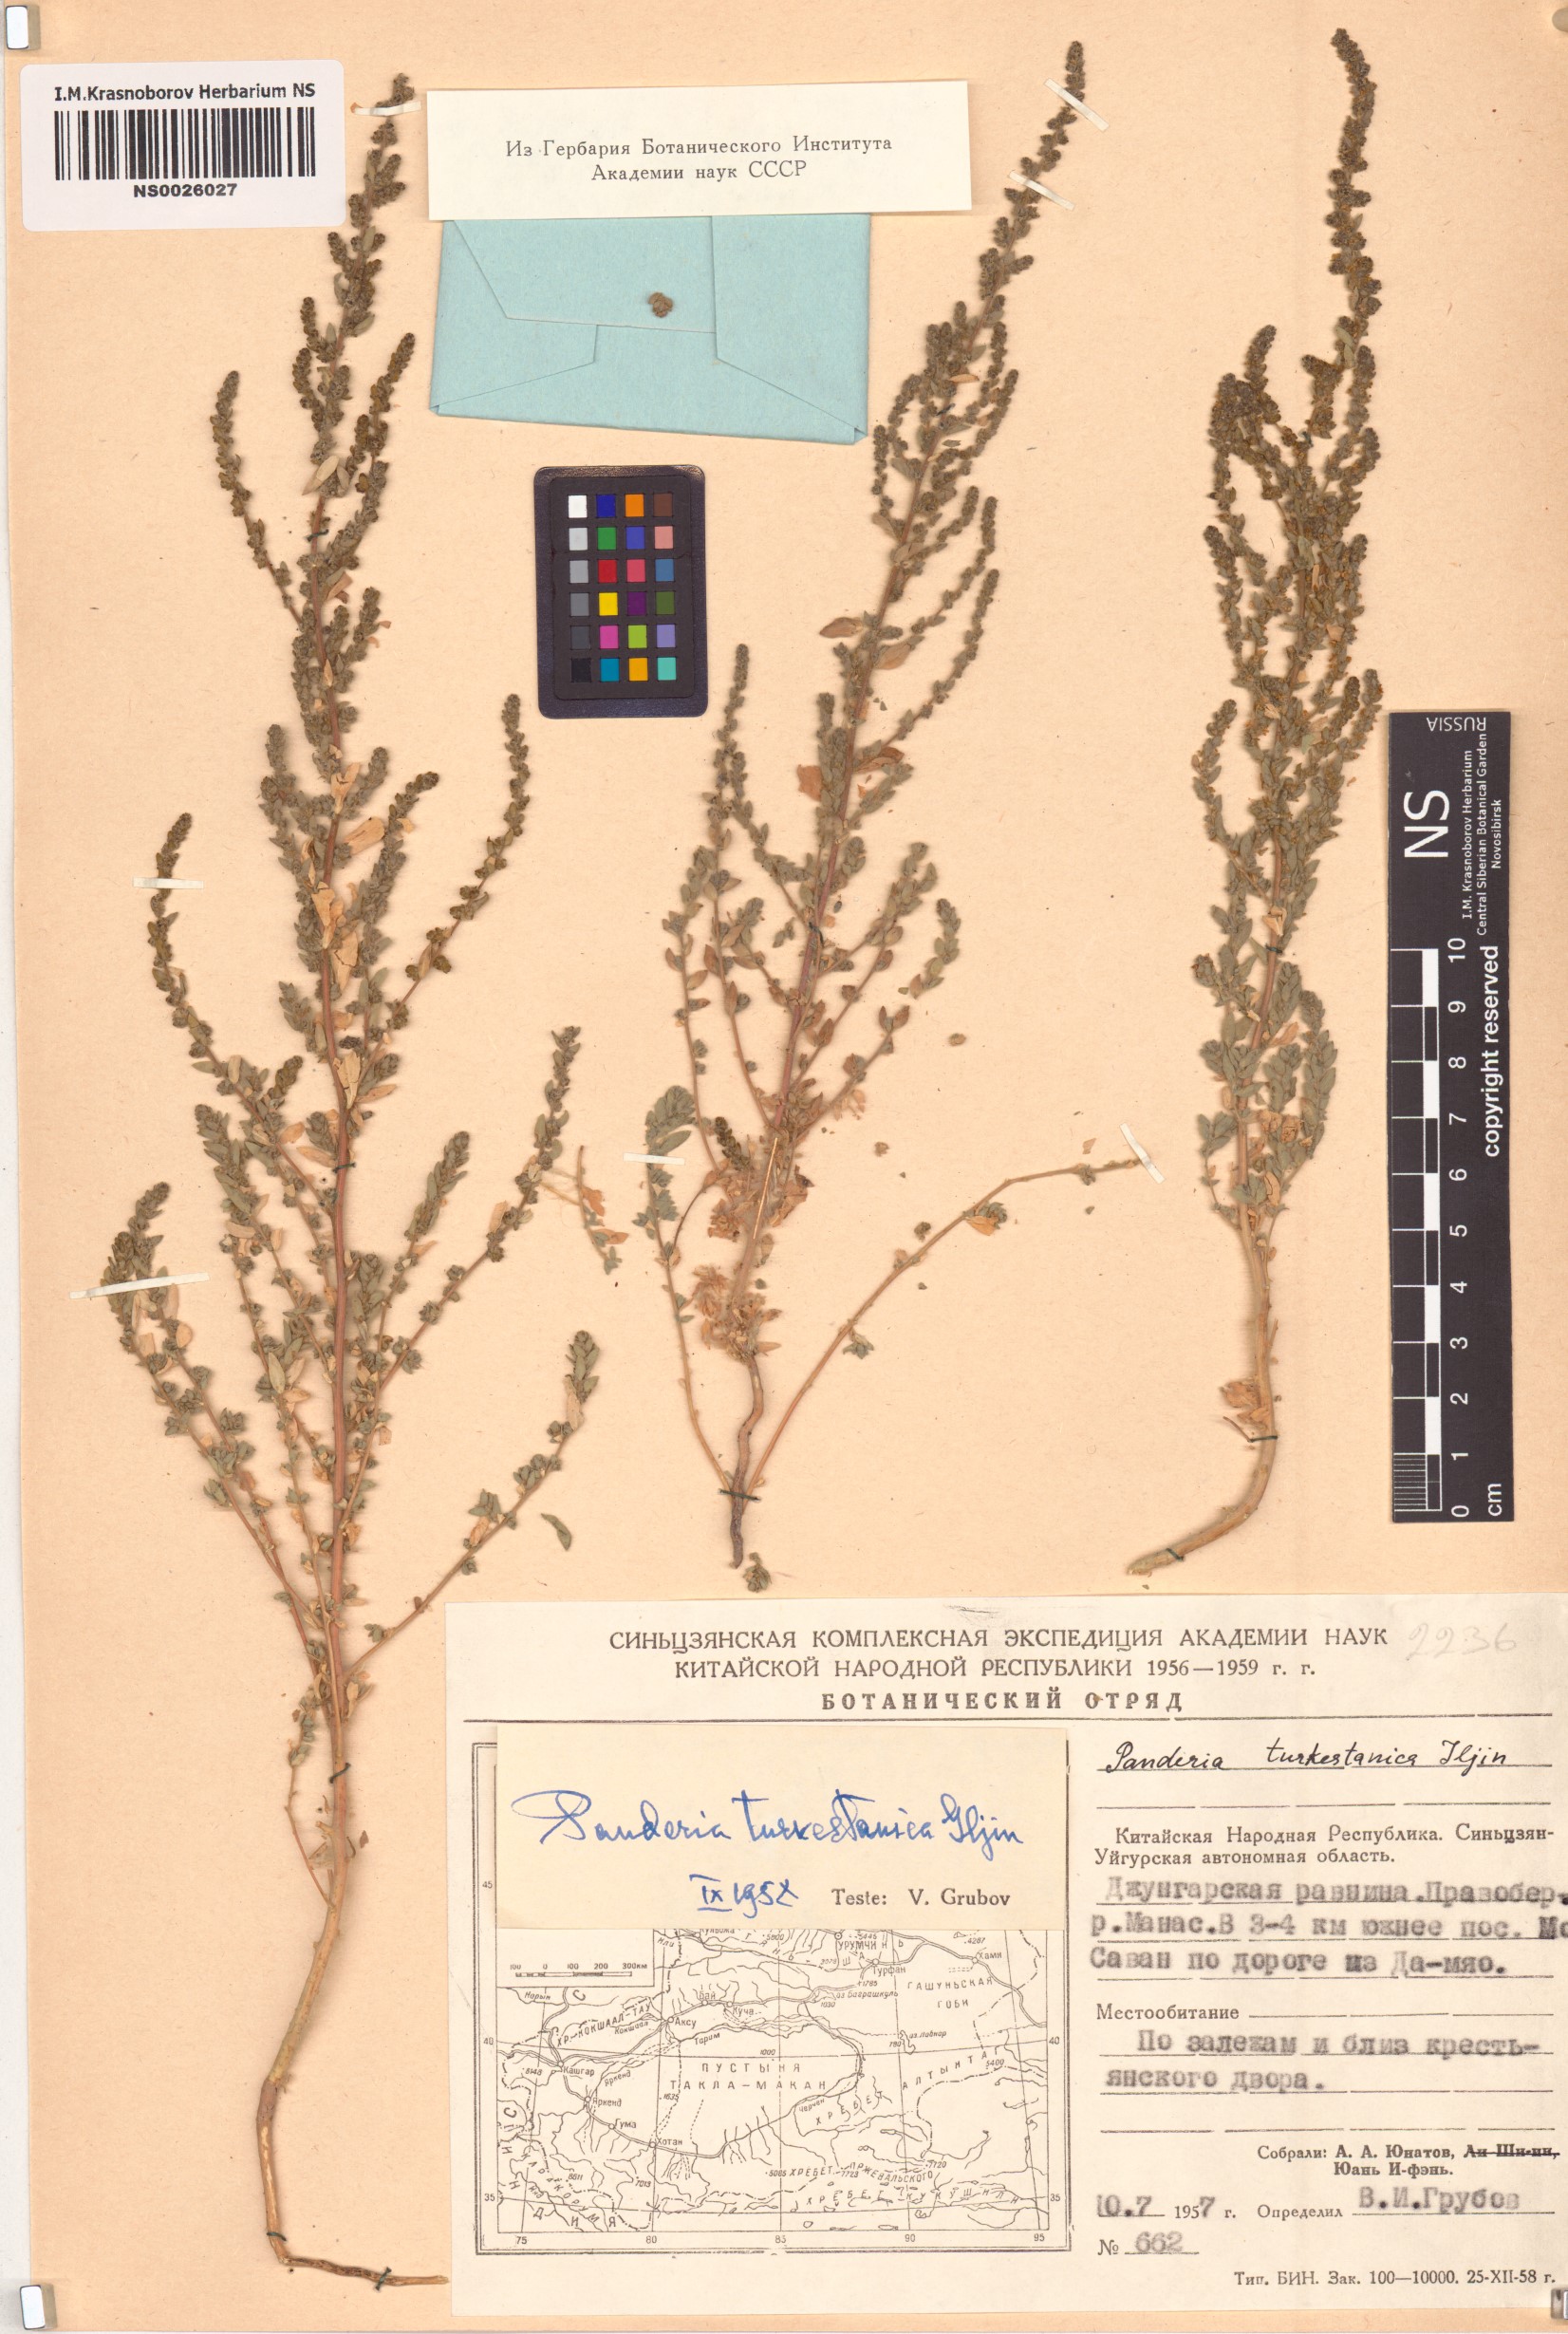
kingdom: Plantae
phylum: Tracheophyta
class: Magnoliopsida
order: Caryophyllales
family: Amaranthaceae
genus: Bassia
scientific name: Bassia pilosa
